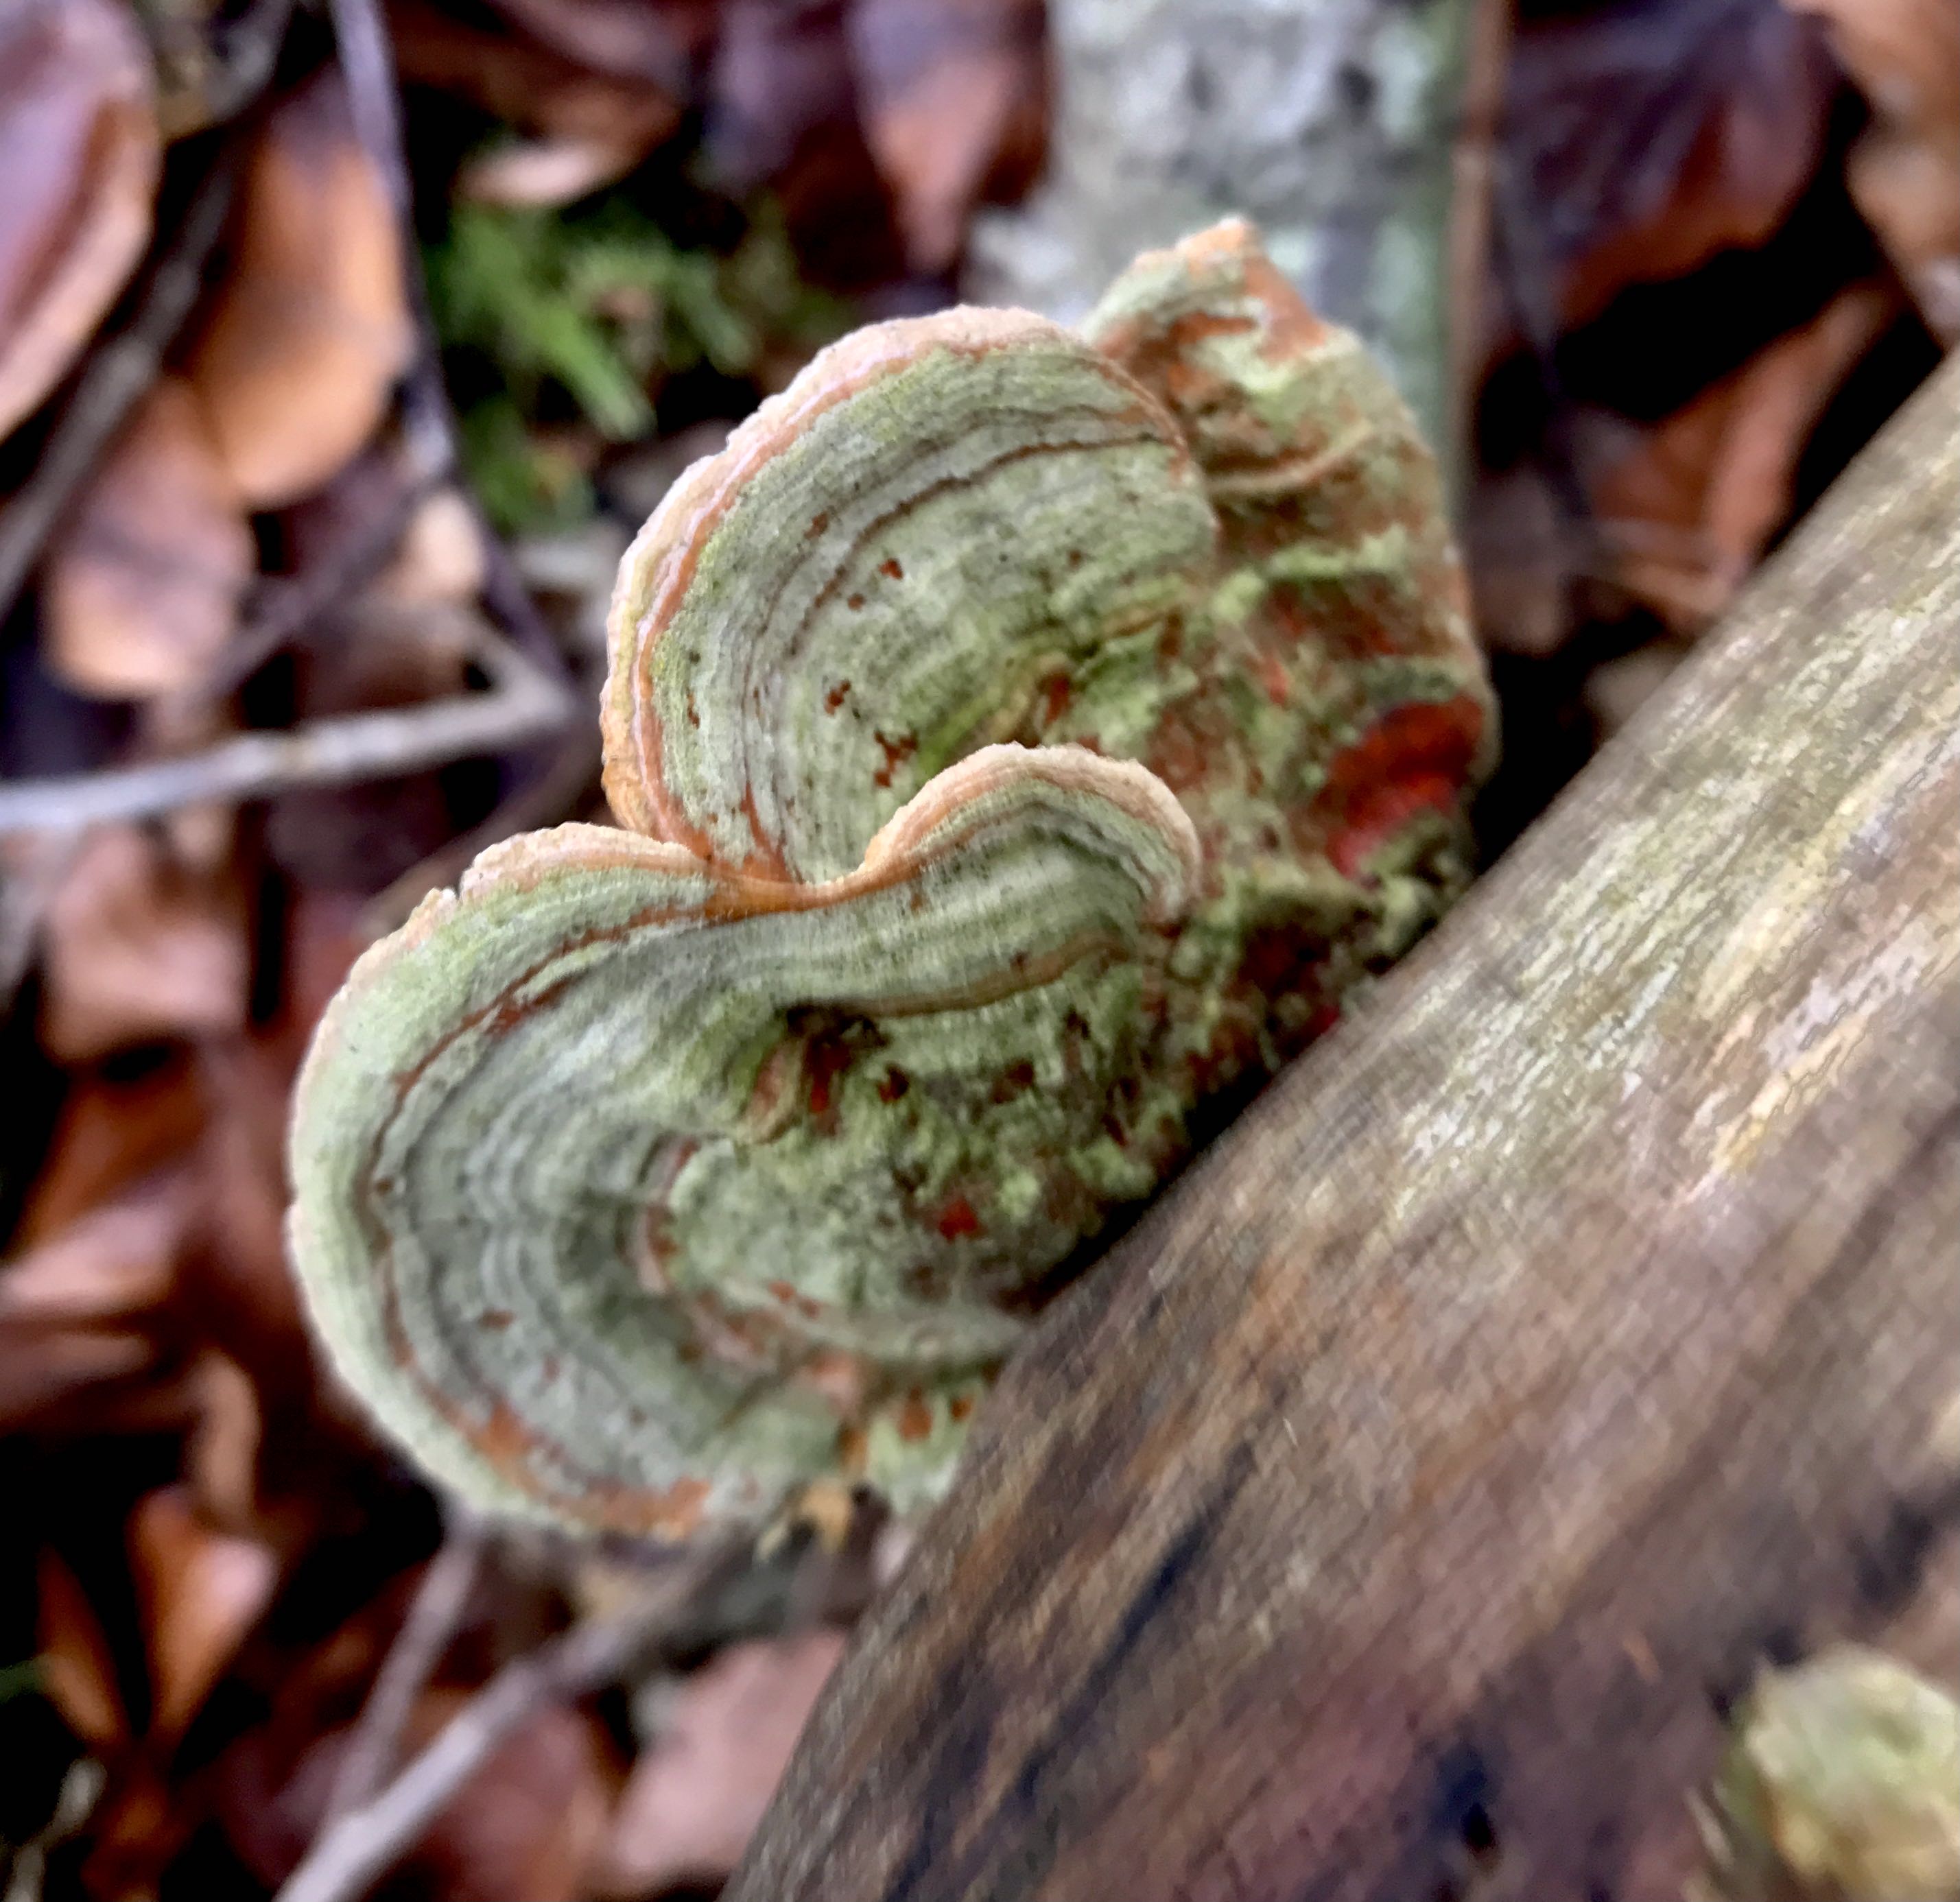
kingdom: Fungi
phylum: Basidiomycota
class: Agaricomycetes
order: Russulales
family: Stereaceae
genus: Stereum
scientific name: Stereum subtomentosum
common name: smuk lædersvamp
